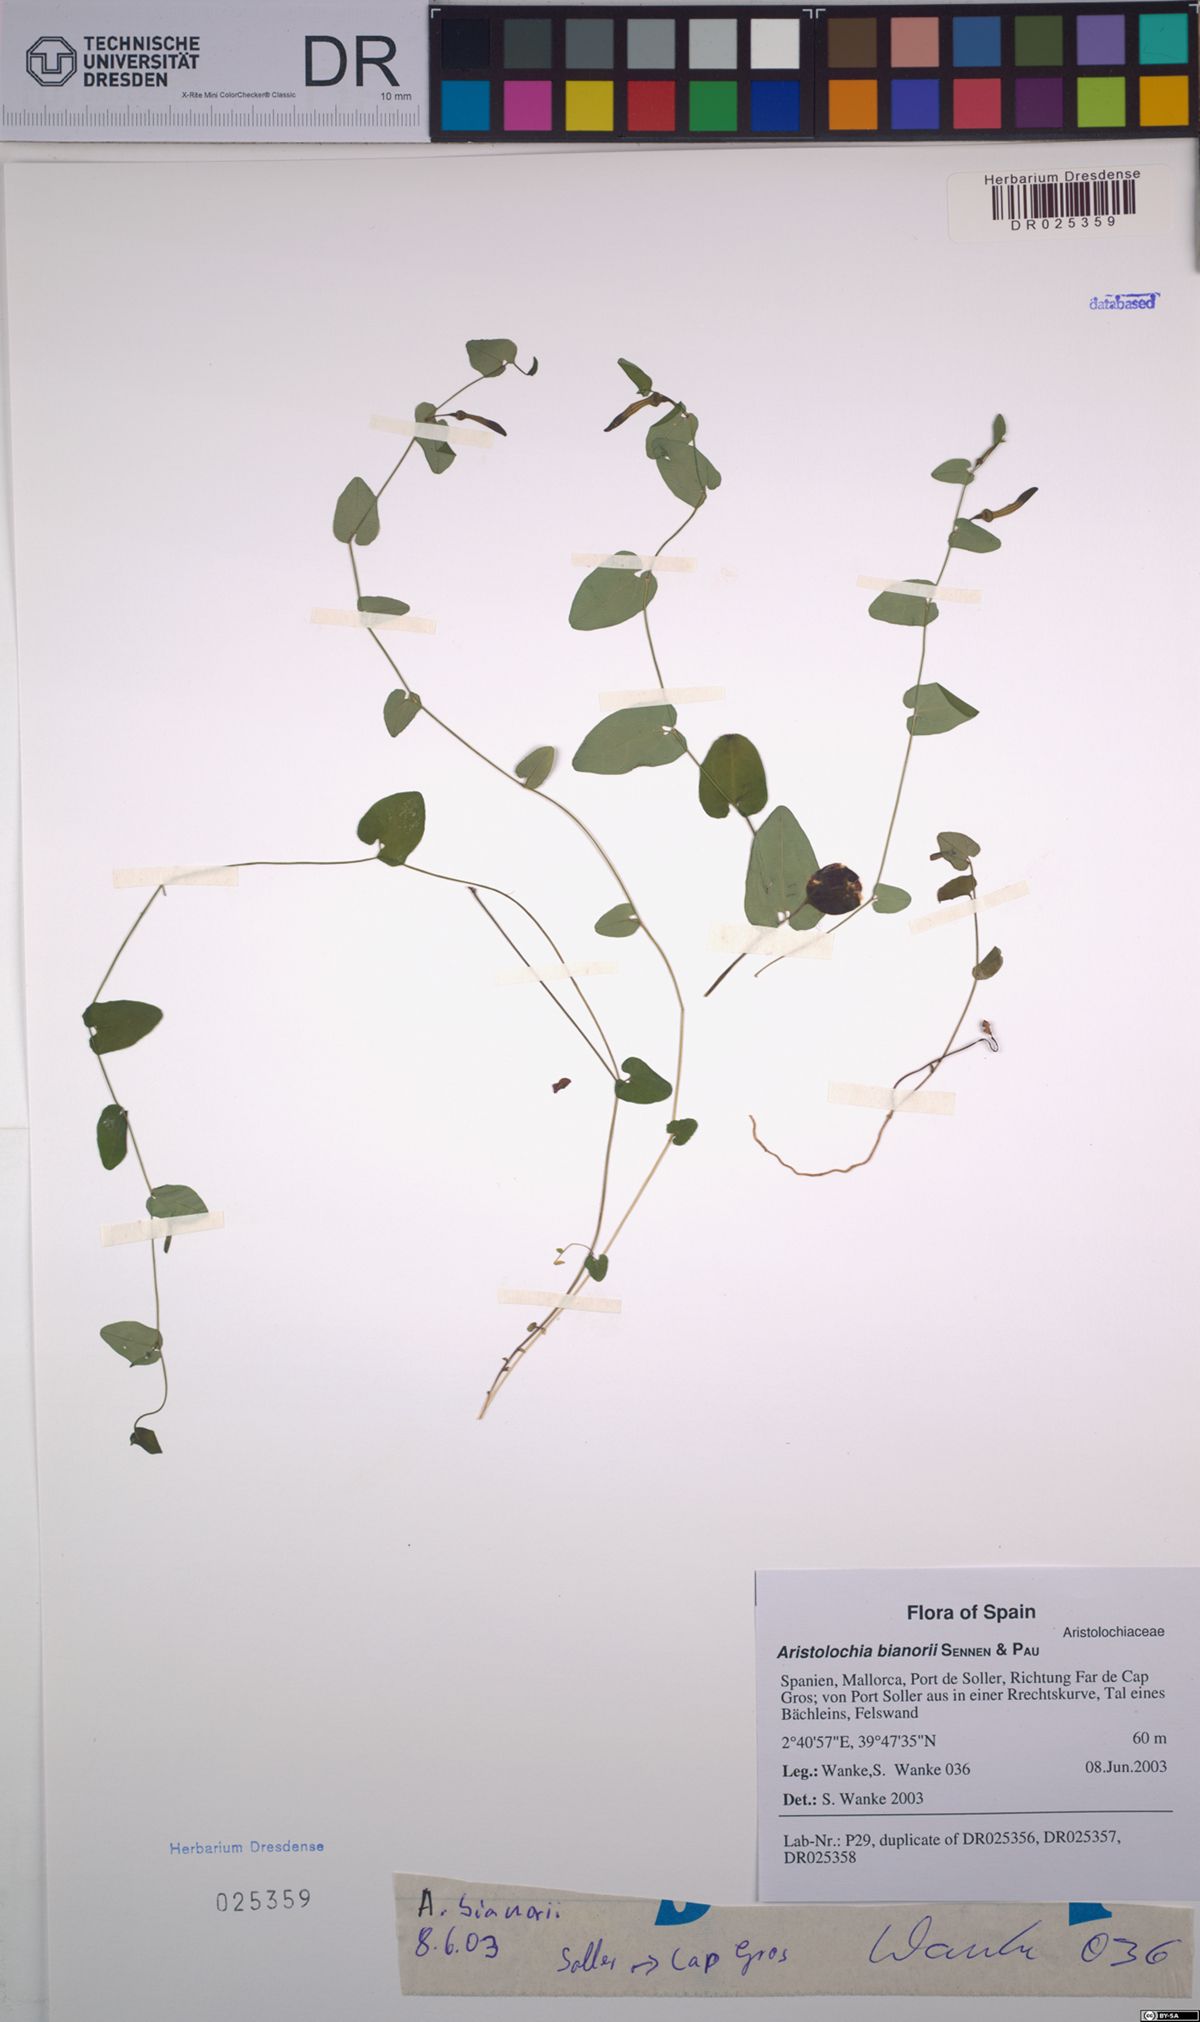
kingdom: Plantae
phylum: Tracheophyta
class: Magnoliopsida
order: Piperales
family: Aristolochiaceae
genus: Aristolochia
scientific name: Aristolochia bianorii
